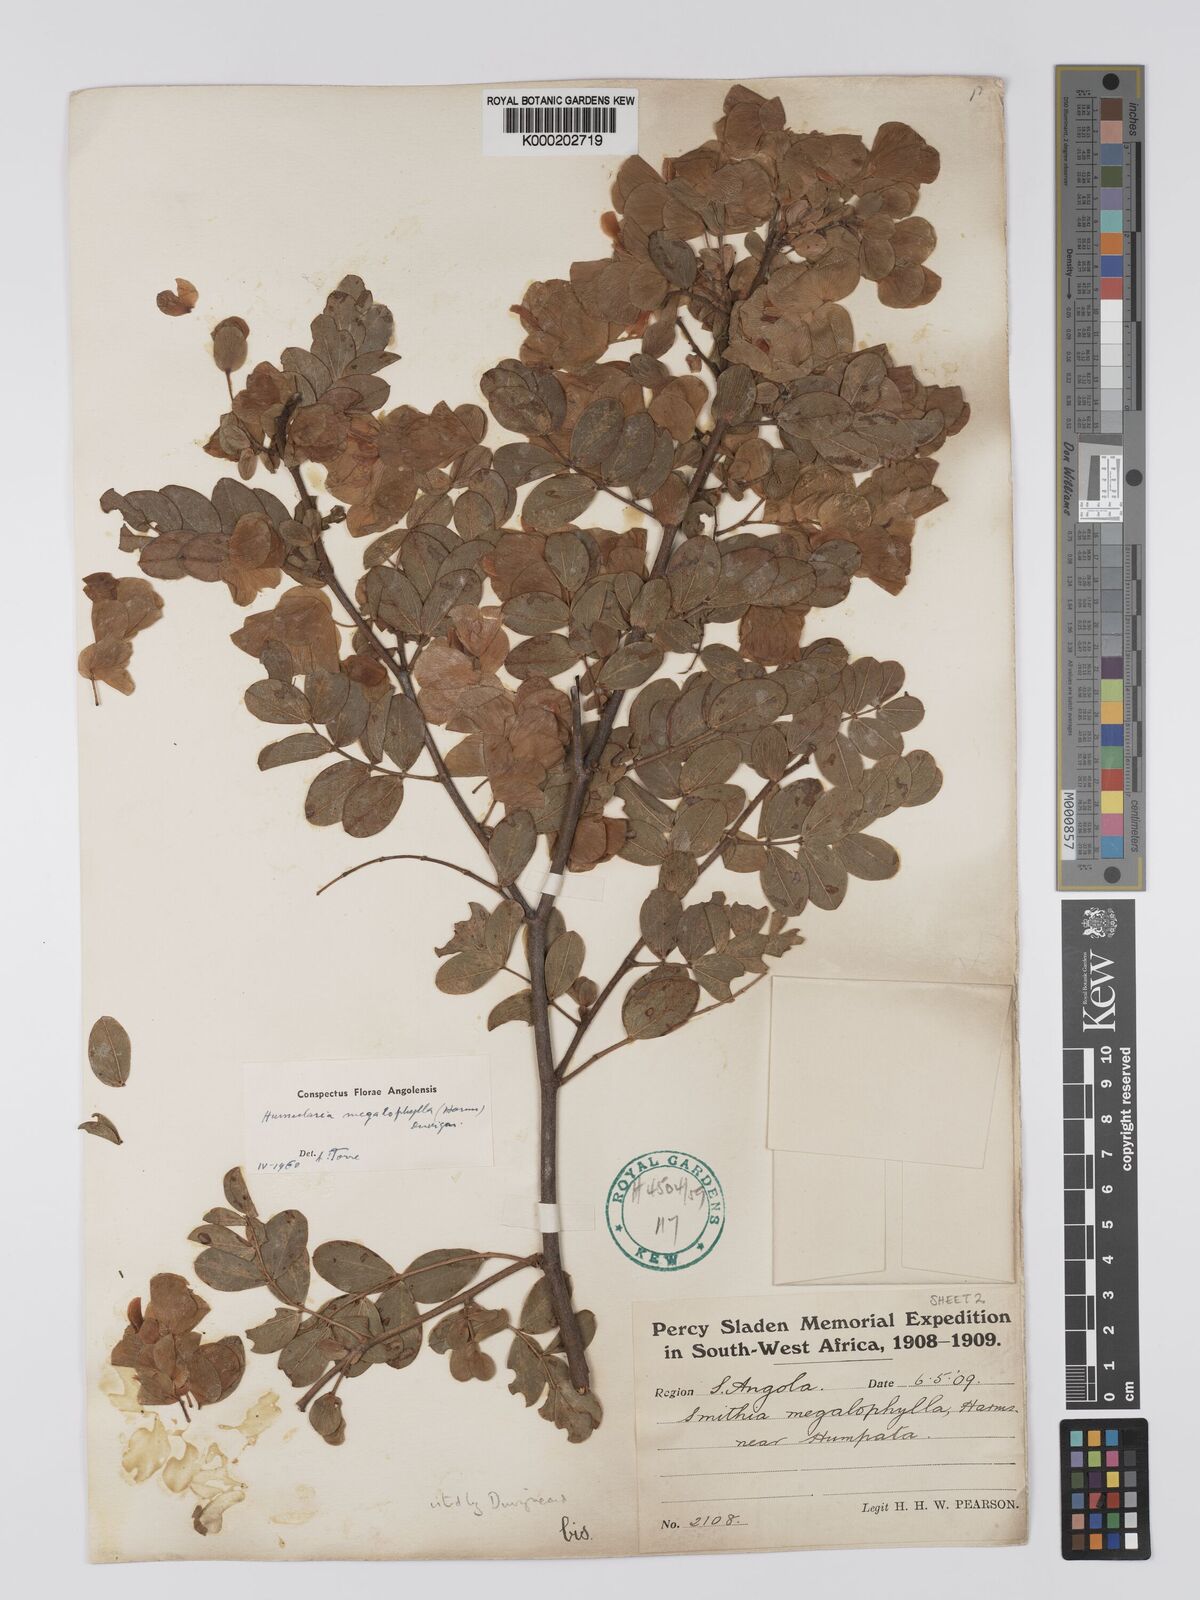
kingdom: Plantae
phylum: Tracheophyta
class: Magnoliopsida
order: Fabales
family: Fabaceae
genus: Humularia
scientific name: Humularia welwitschii
